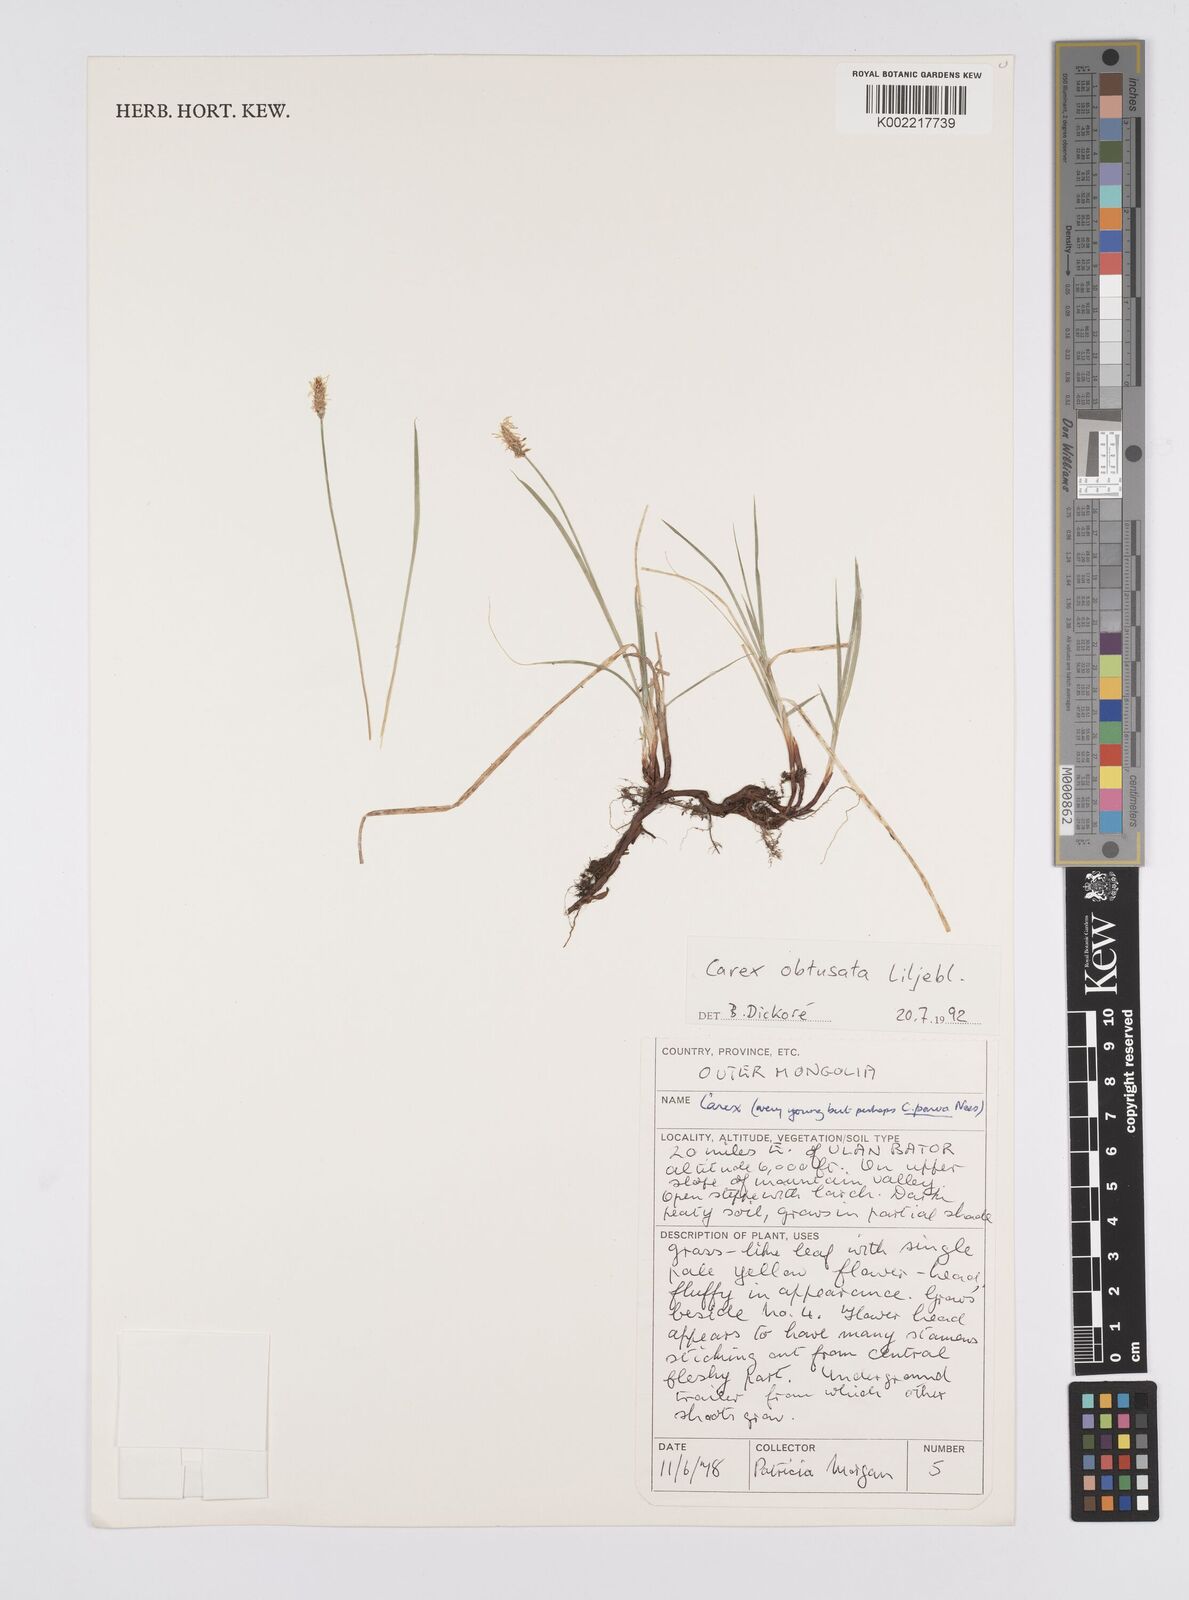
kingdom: Plantae
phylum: Tracheophyta
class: Liliopsida
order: Poales
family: Cyperaceae
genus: Carex
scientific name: Carex obtusata
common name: Blunt sedge
